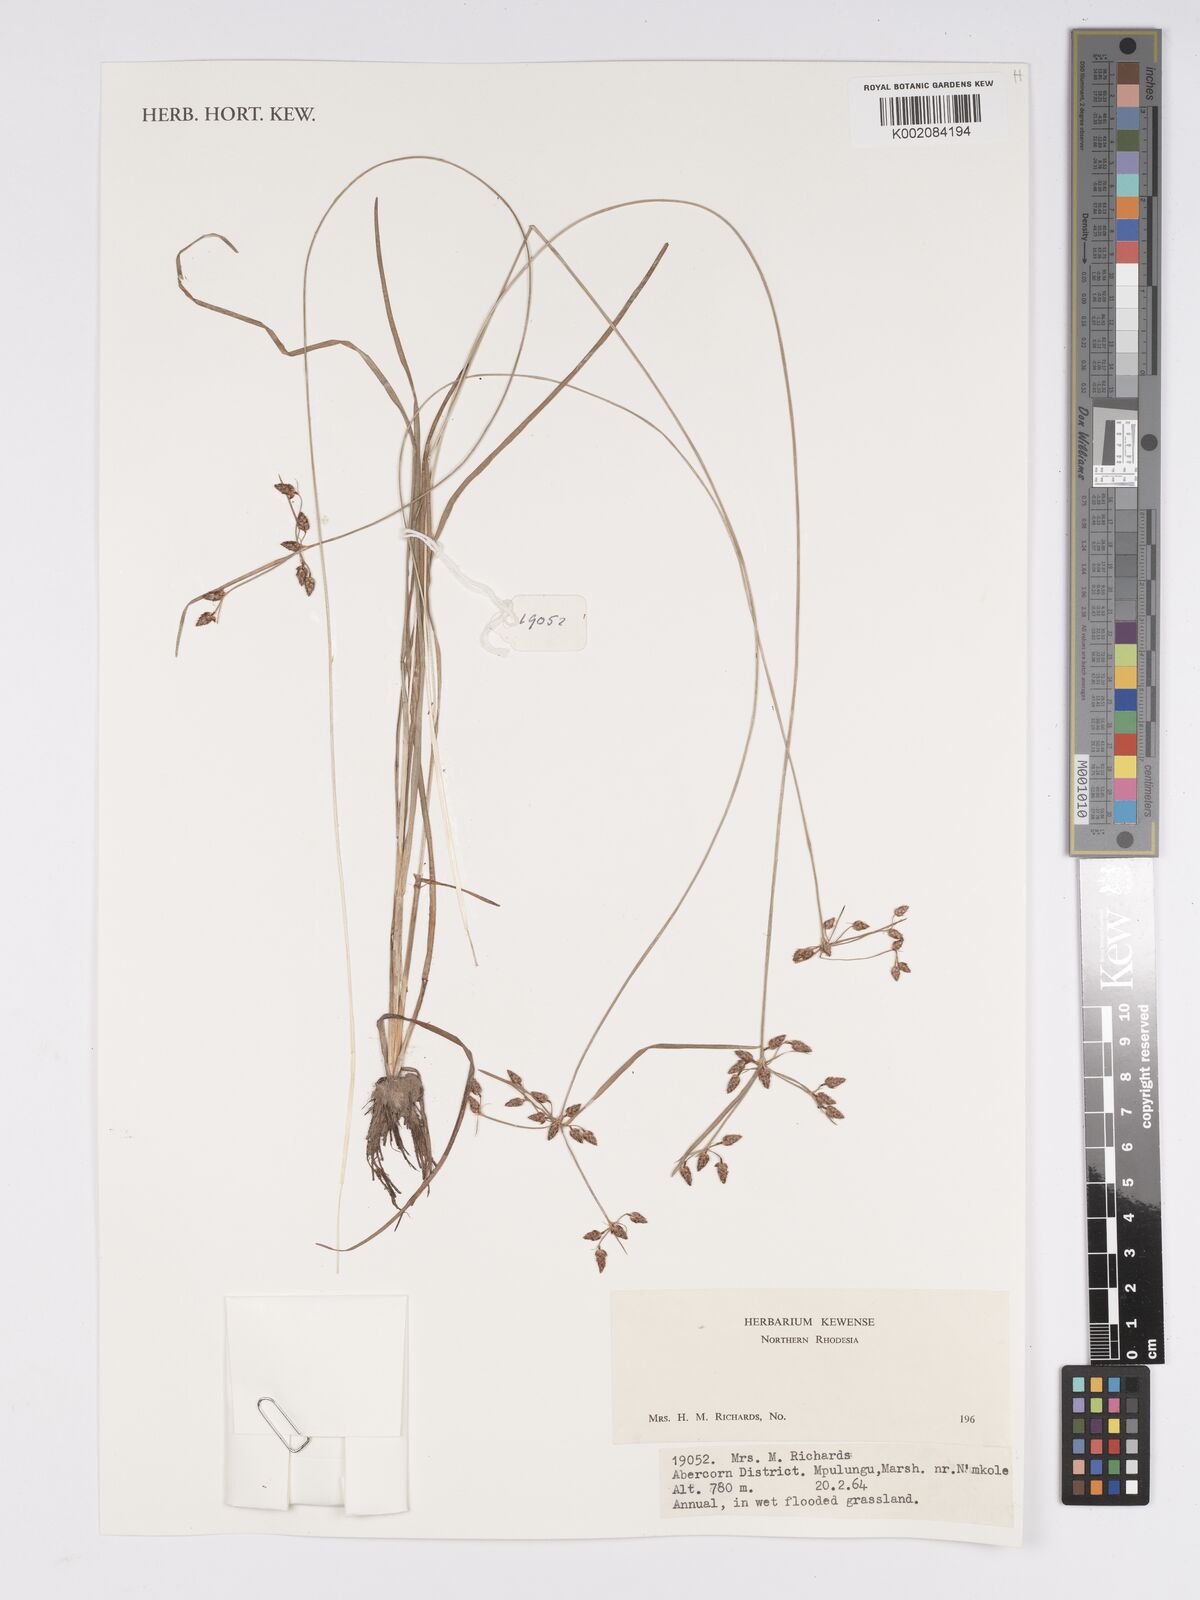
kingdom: Plantae
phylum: Tracheophyta
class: Liliopsida
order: Poales
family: Cyperaceae
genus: Bulbostylis
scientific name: Bulbostylis
